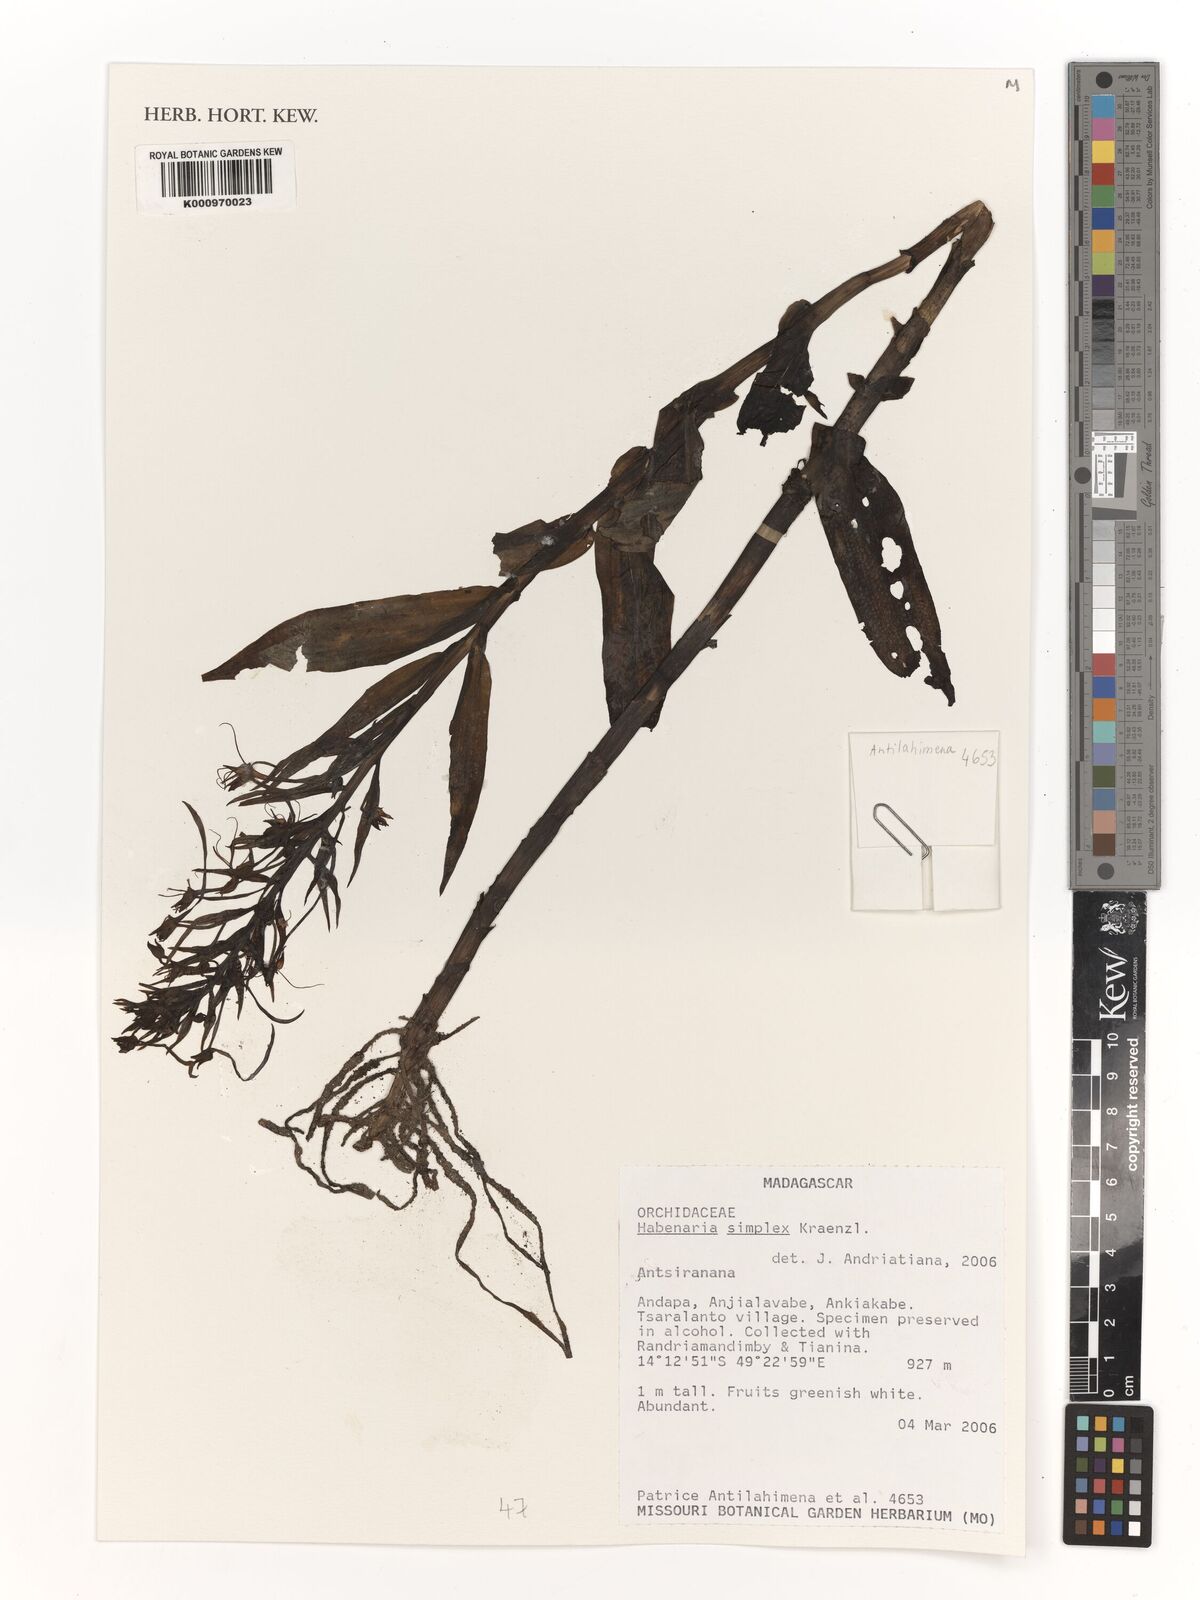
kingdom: Plantae
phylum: Tracheophyta
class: Liliopsida
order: Asparagales
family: Orchidaceae
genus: Habenaria
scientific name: Habenaria simplex
